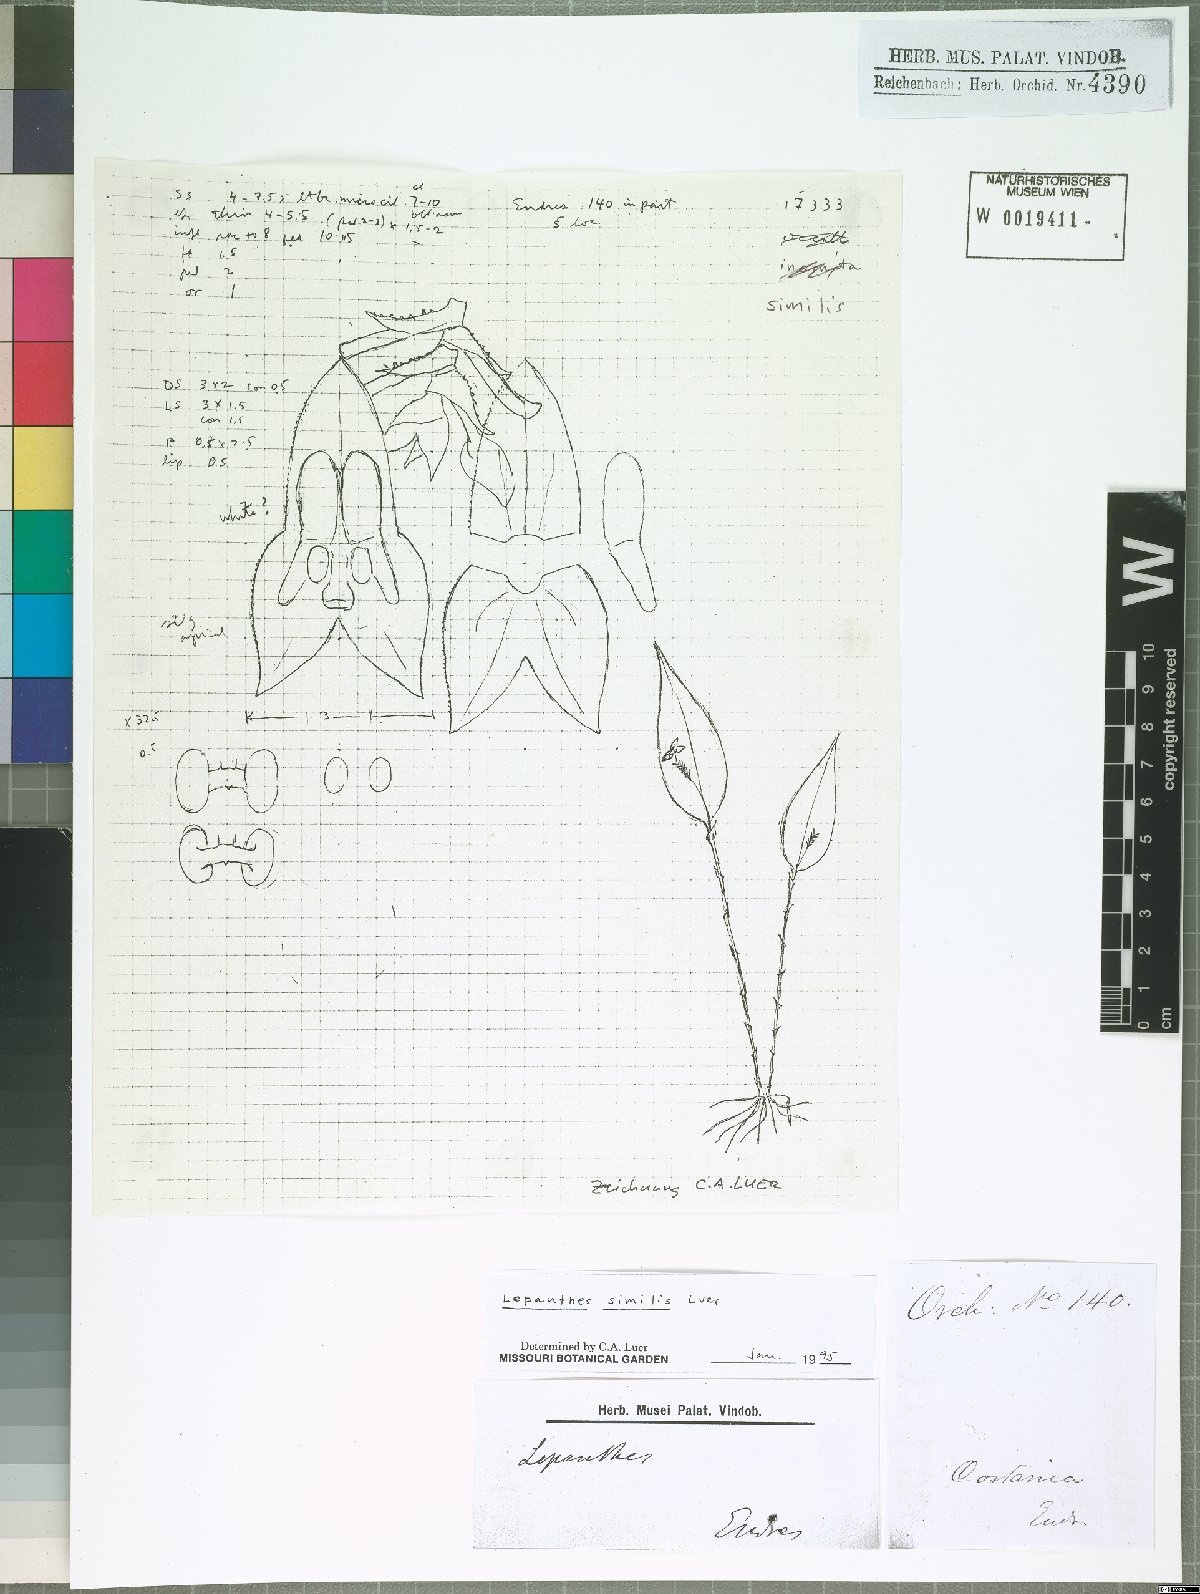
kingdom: Plantae
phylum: Tracheophyta
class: Liliopsida
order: Asparagales
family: Orchidaceae
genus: Lepanthes
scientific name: Lepanthes similis
